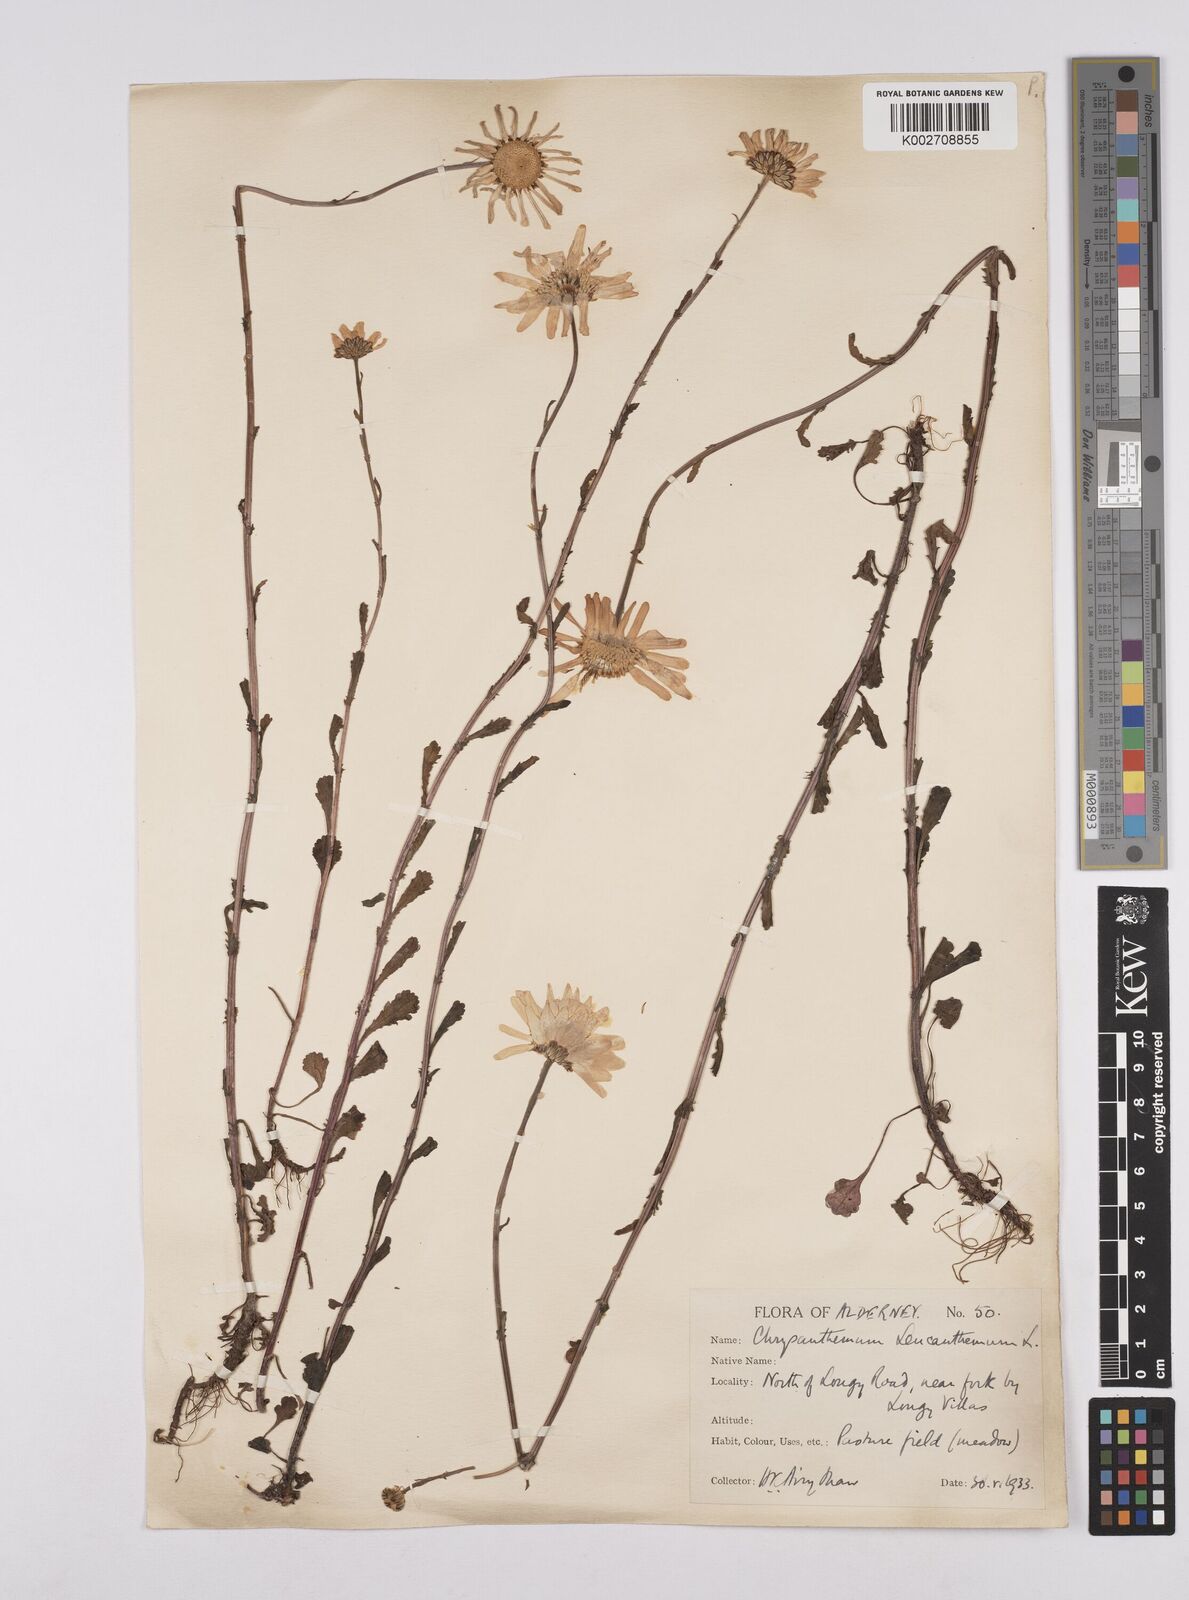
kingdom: Plantae
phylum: Tracheophyta
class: Magnoliopsida
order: Asterales
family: Asteraceae
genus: Leucanthemum
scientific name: Leucanthemum
